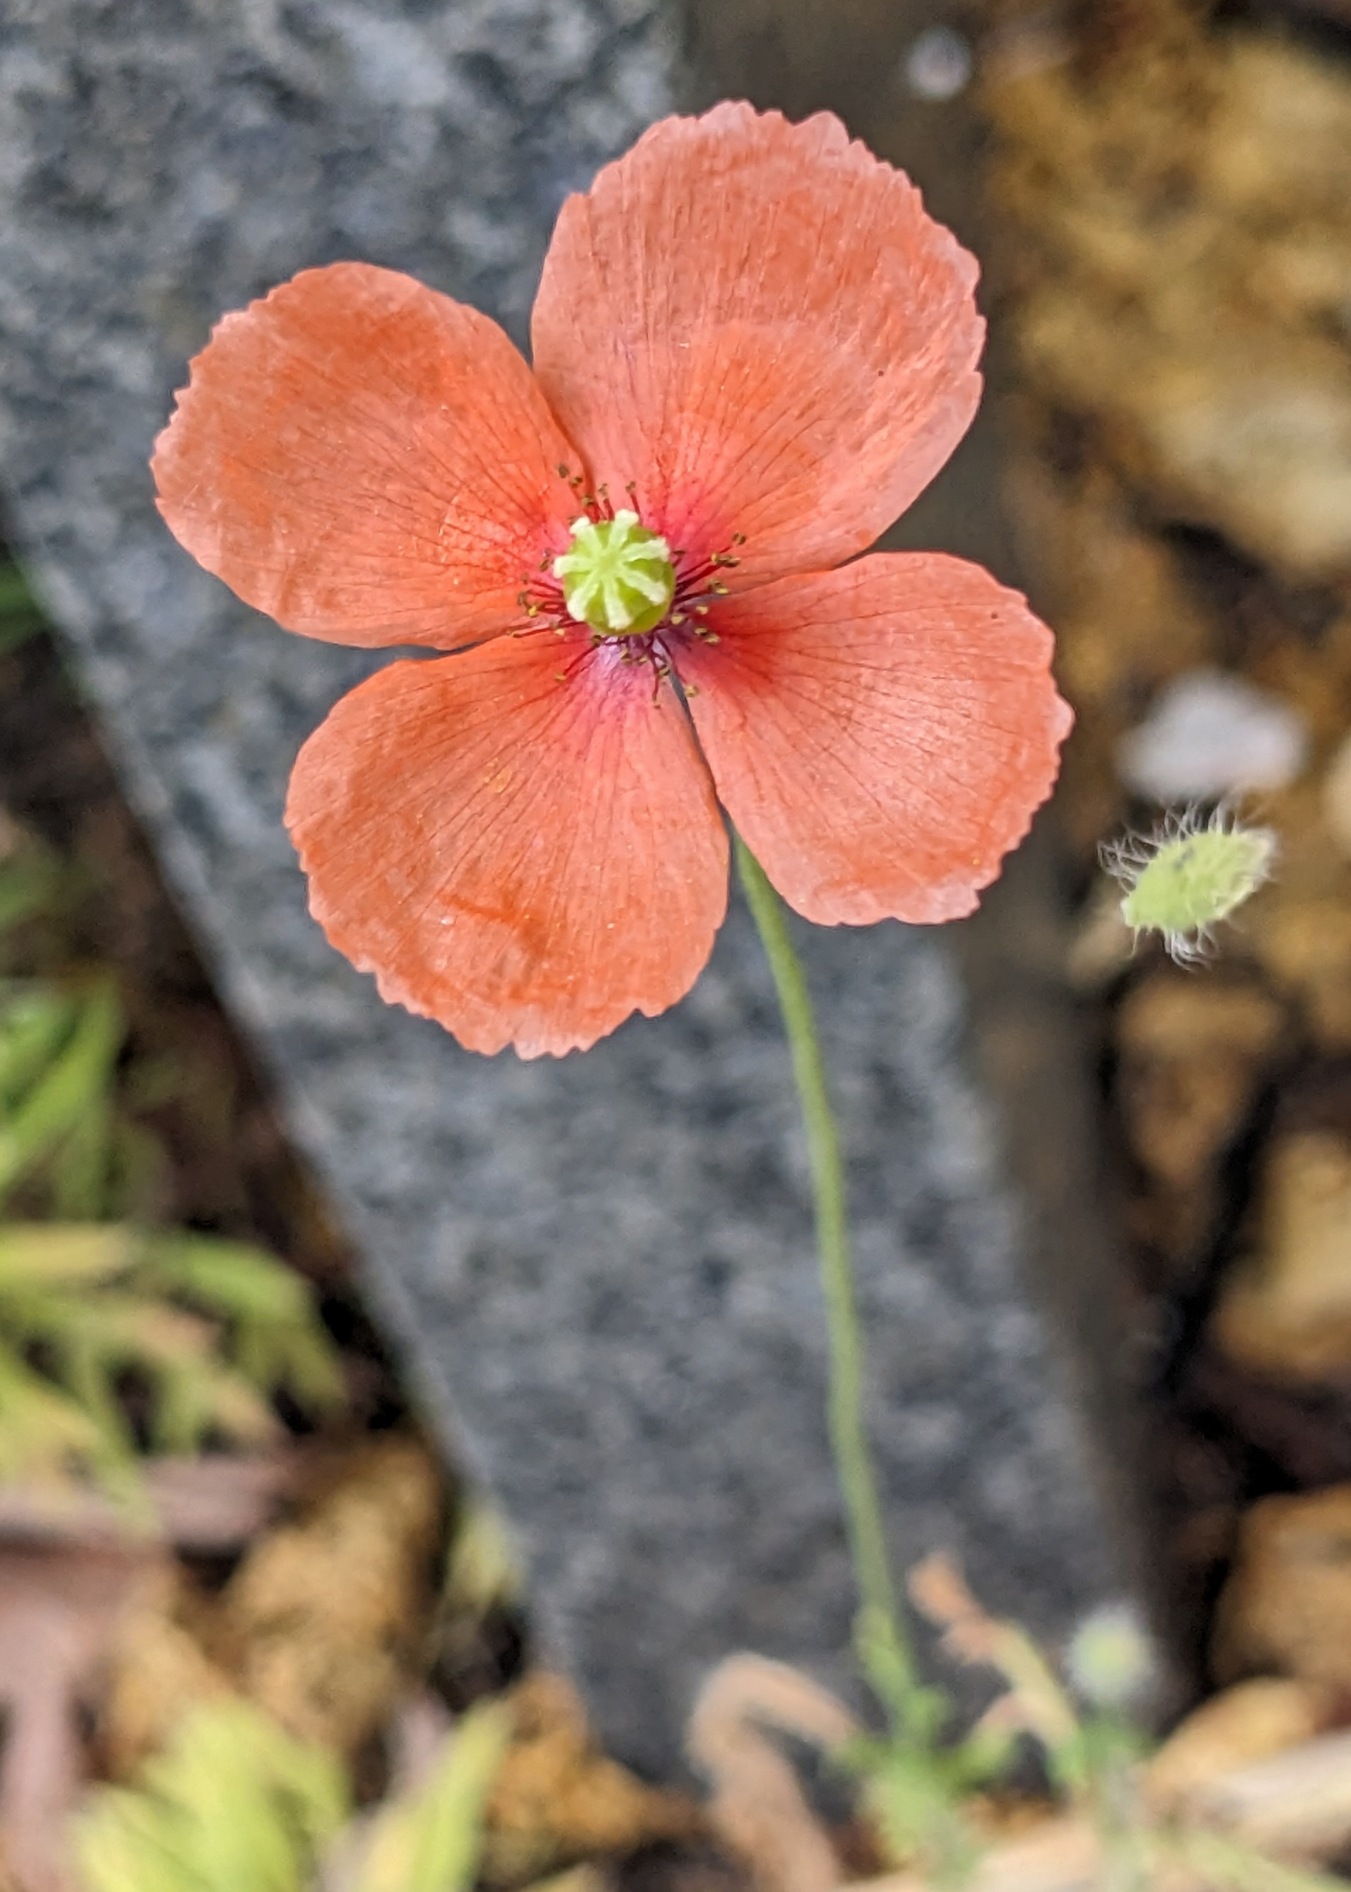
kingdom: Plantae
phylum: Tracheophyta
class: Magnoliopsida
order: Ranunculales
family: Papaveraceae
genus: Papaver
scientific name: Papaver dubium
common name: Gærde-valmue
